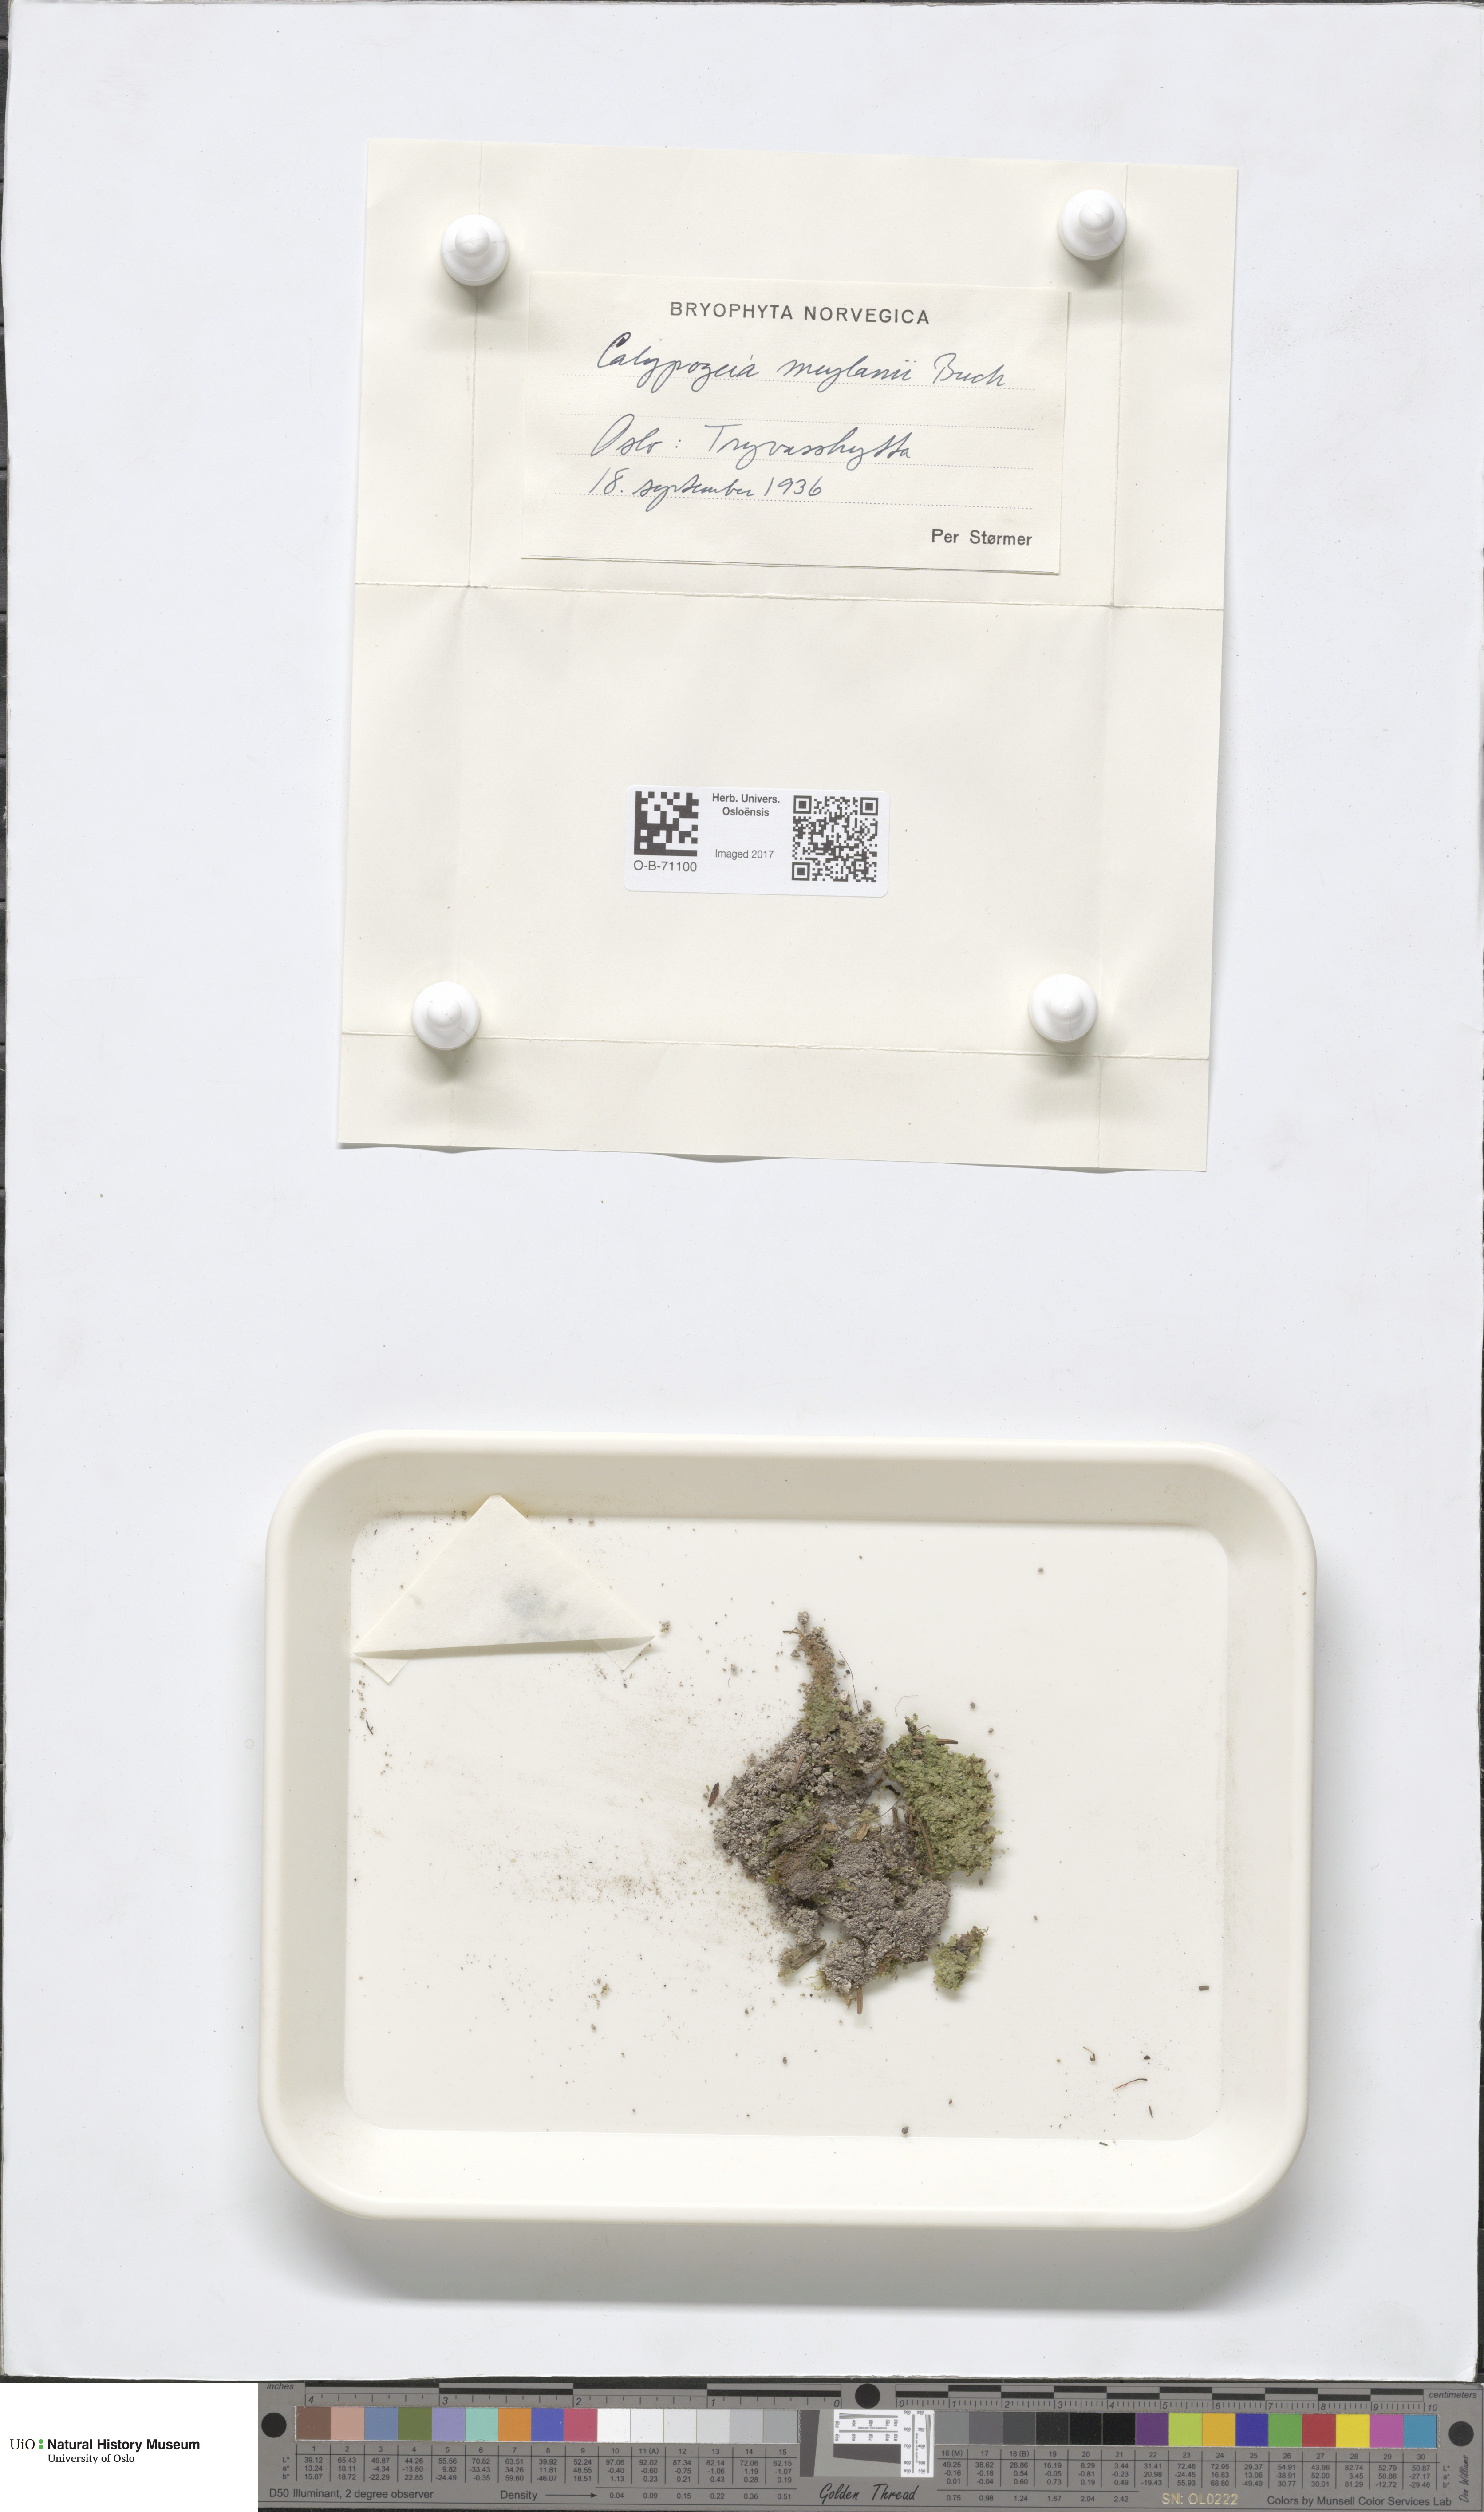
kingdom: Plantae
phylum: Marchantiophyta
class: Jungermanniopsida
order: Jungermanniales
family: Calypogeiaceae
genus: Calypogeia
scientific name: Calypogeia integristipula
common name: Meylan s pouchwort
